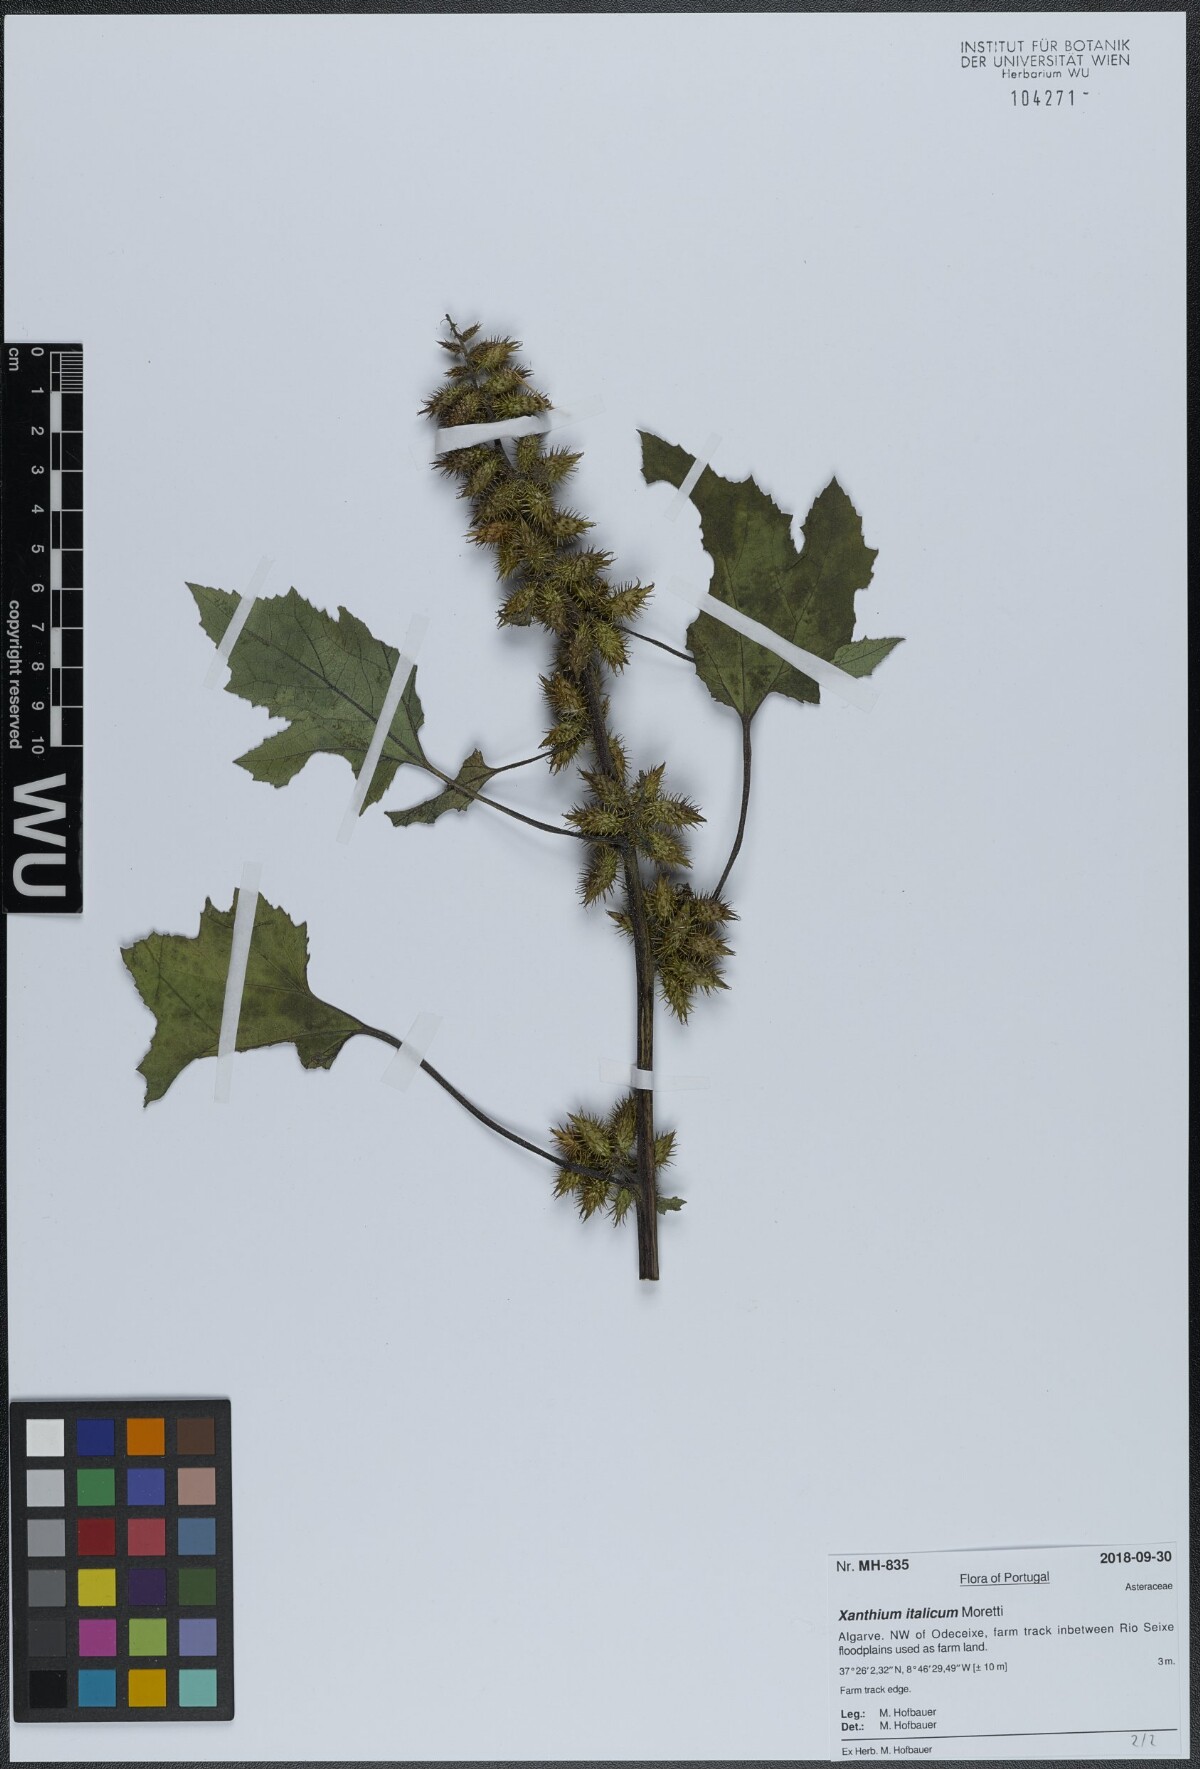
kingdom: Plantae
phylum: Tracheophyta
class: Magnoliopsida
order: Asterales
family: Asteraceae
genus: Xanthium
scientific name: Xanthium orientale
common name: Californian burr
